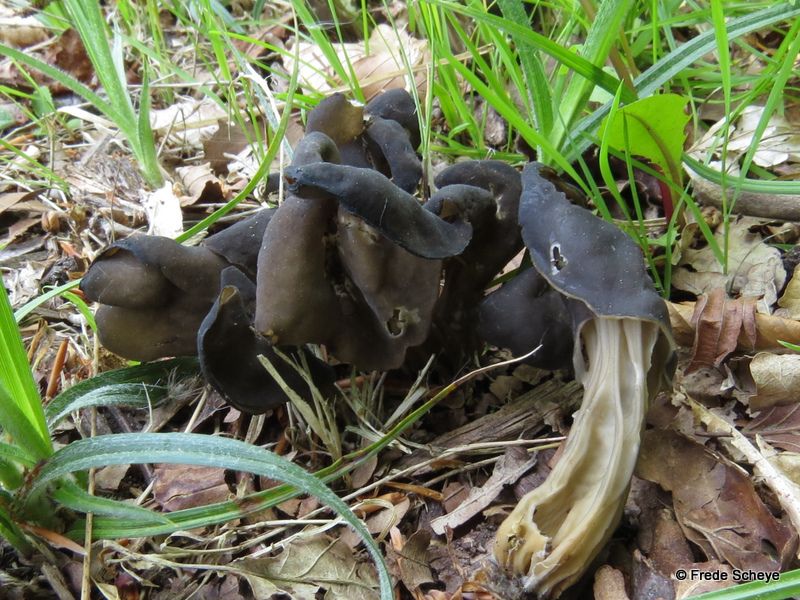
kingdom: Fungi
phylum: Ascomycota
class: Pezizomycetes
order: Pezizales
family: Helvellaceae
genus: Helvella
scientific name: Helvella lacunosa
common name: grubet foldhat
